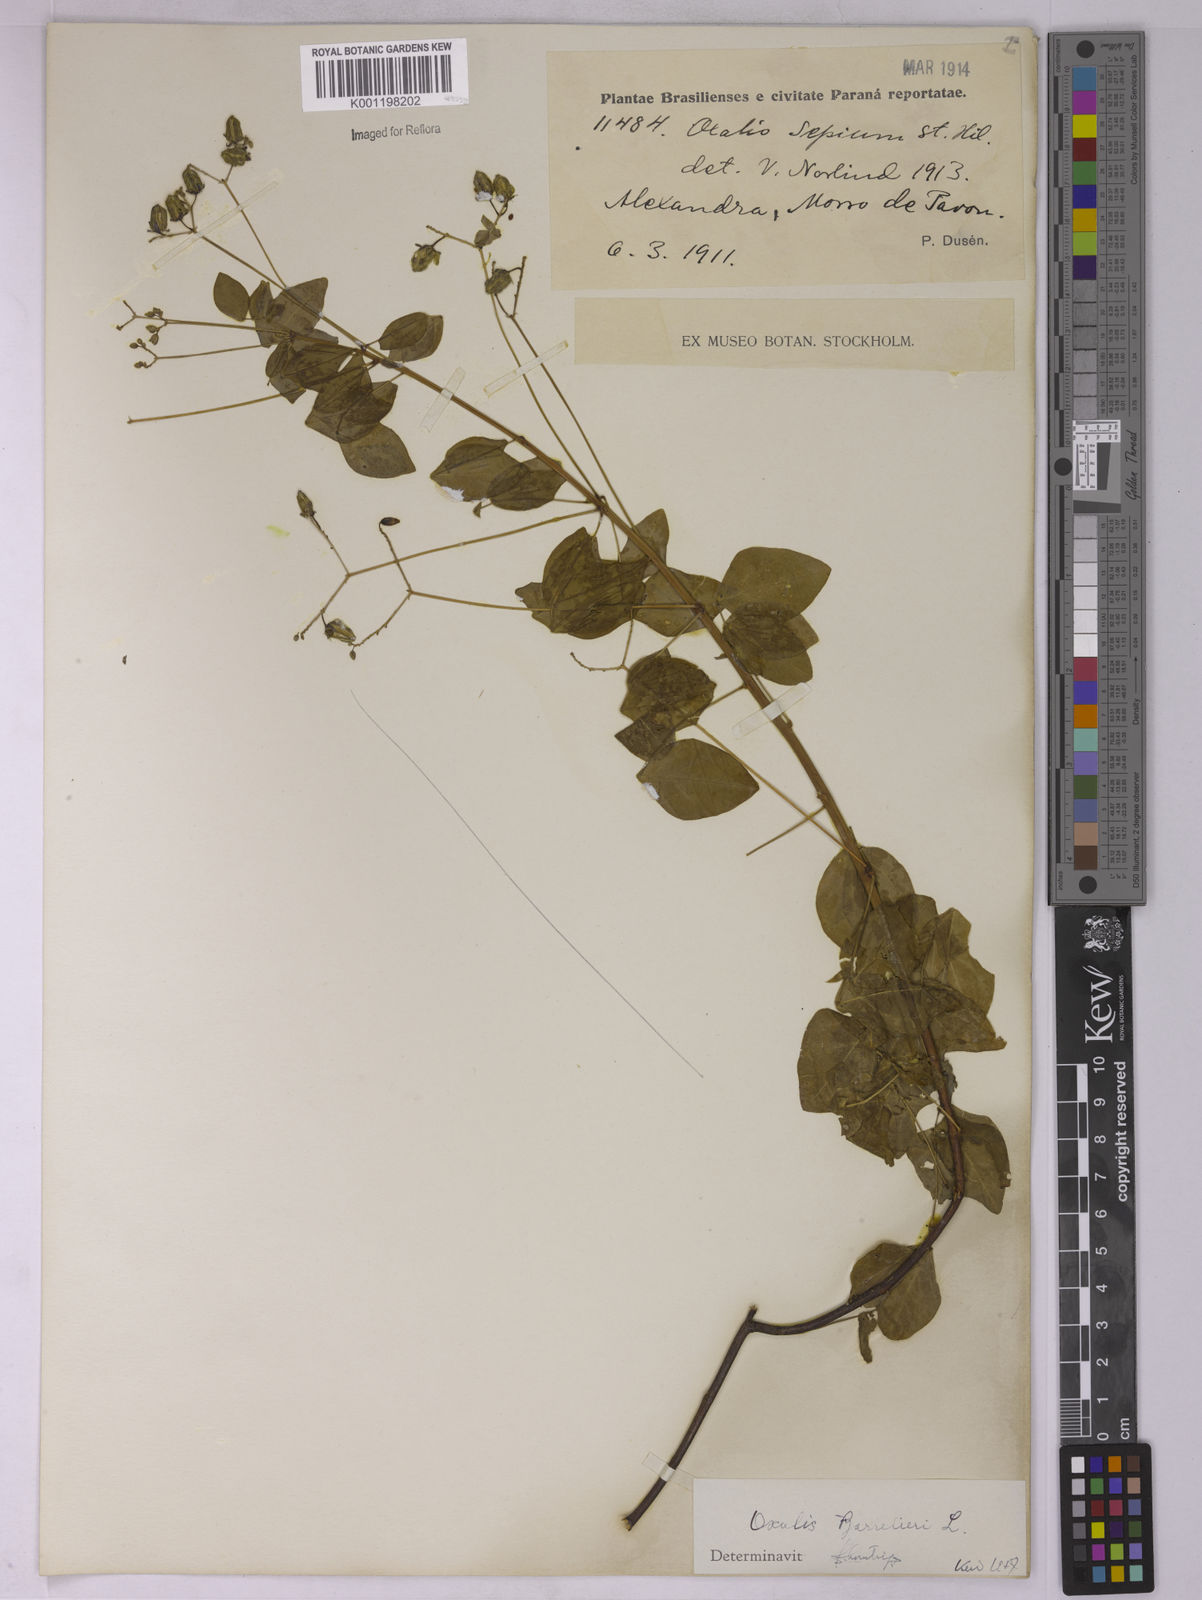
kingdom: Plantae
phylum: Tracheophyta
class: Magnoliopsida
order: Oxalidales
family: Oxalidaceae
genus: Oxalis
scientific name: Oxalis barrelieri
